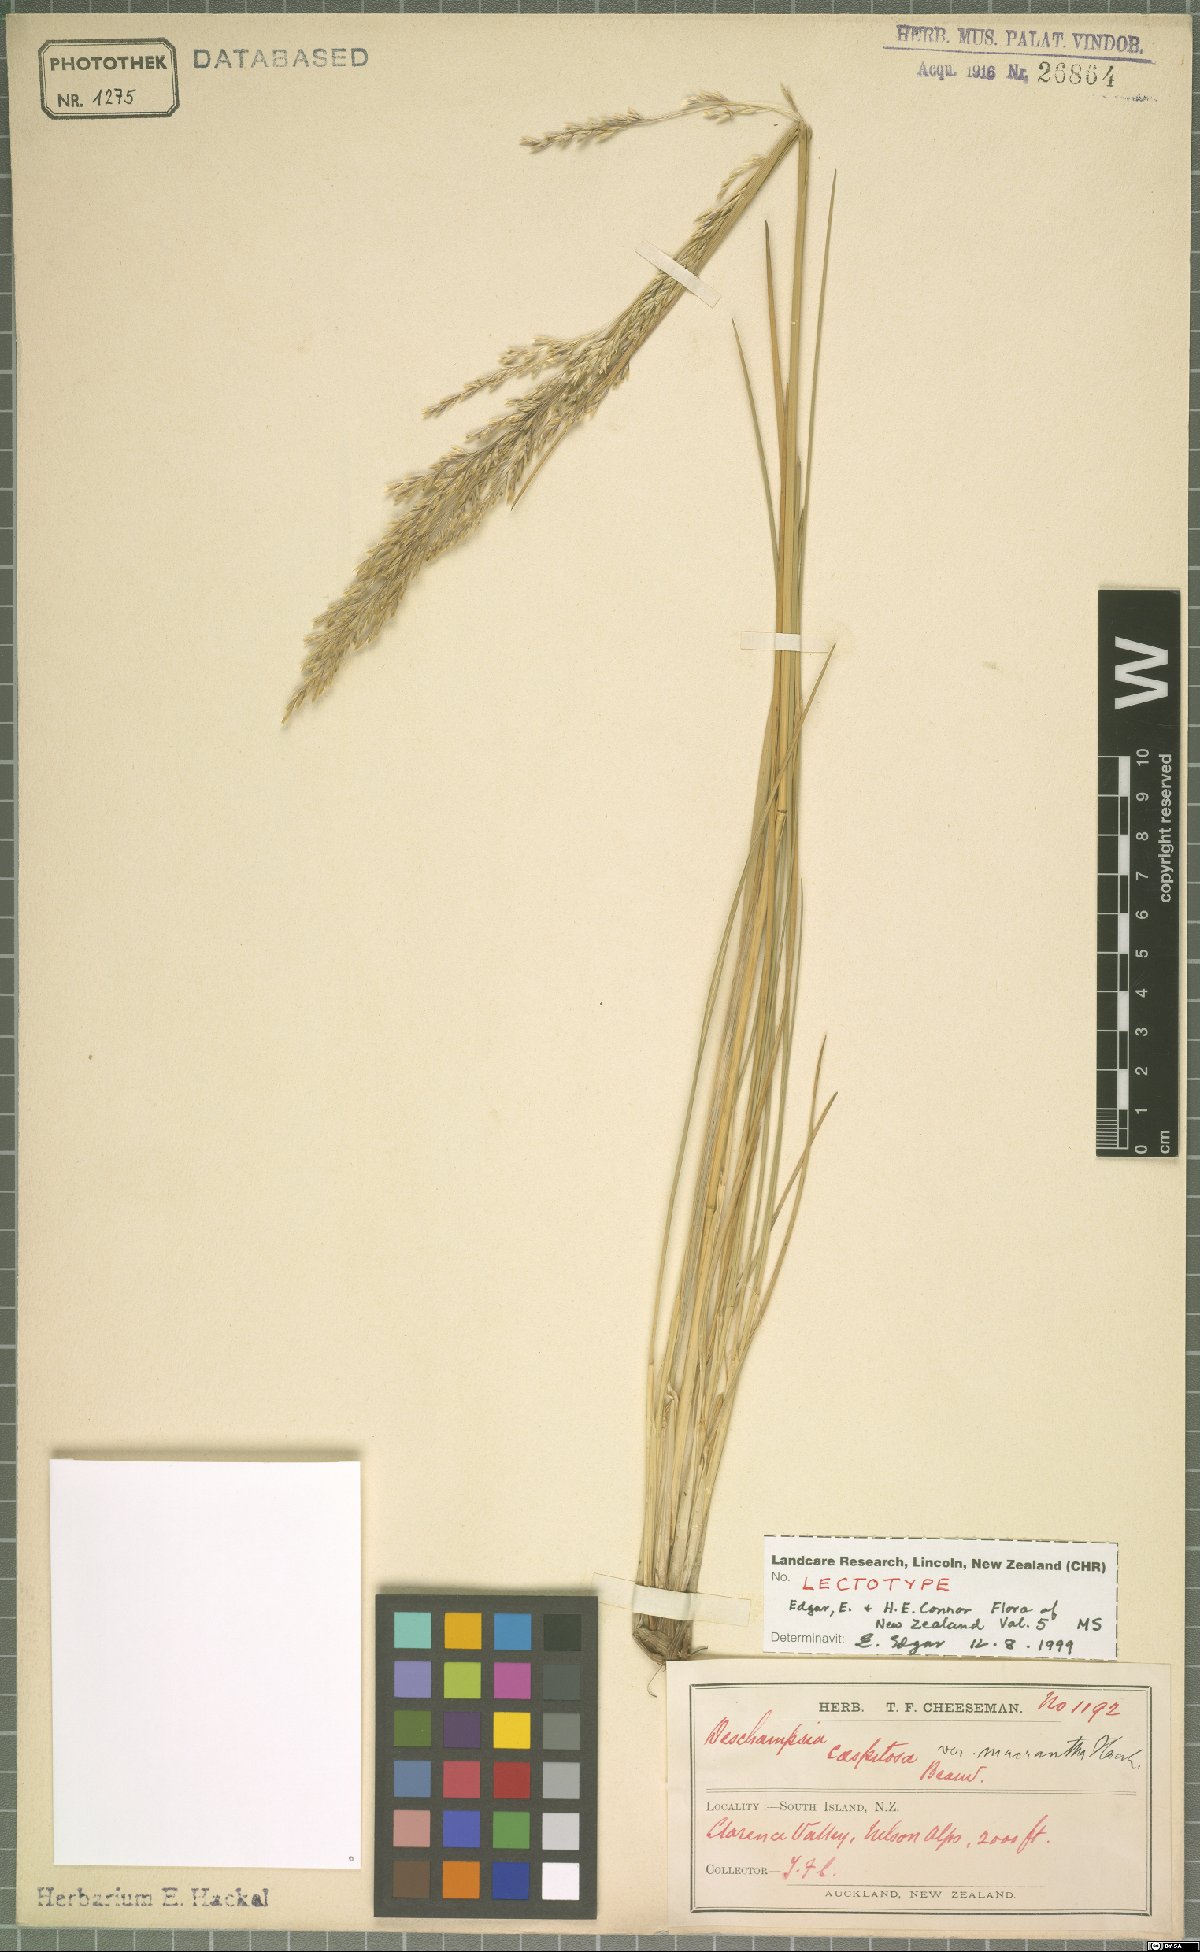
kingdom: Plantae
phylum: Tracheophyta
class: Liliopsida
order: Poales
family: Poaceae
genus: Deschampsia
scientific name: Deschampsia cespitosa
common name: Tufted hair-grass
